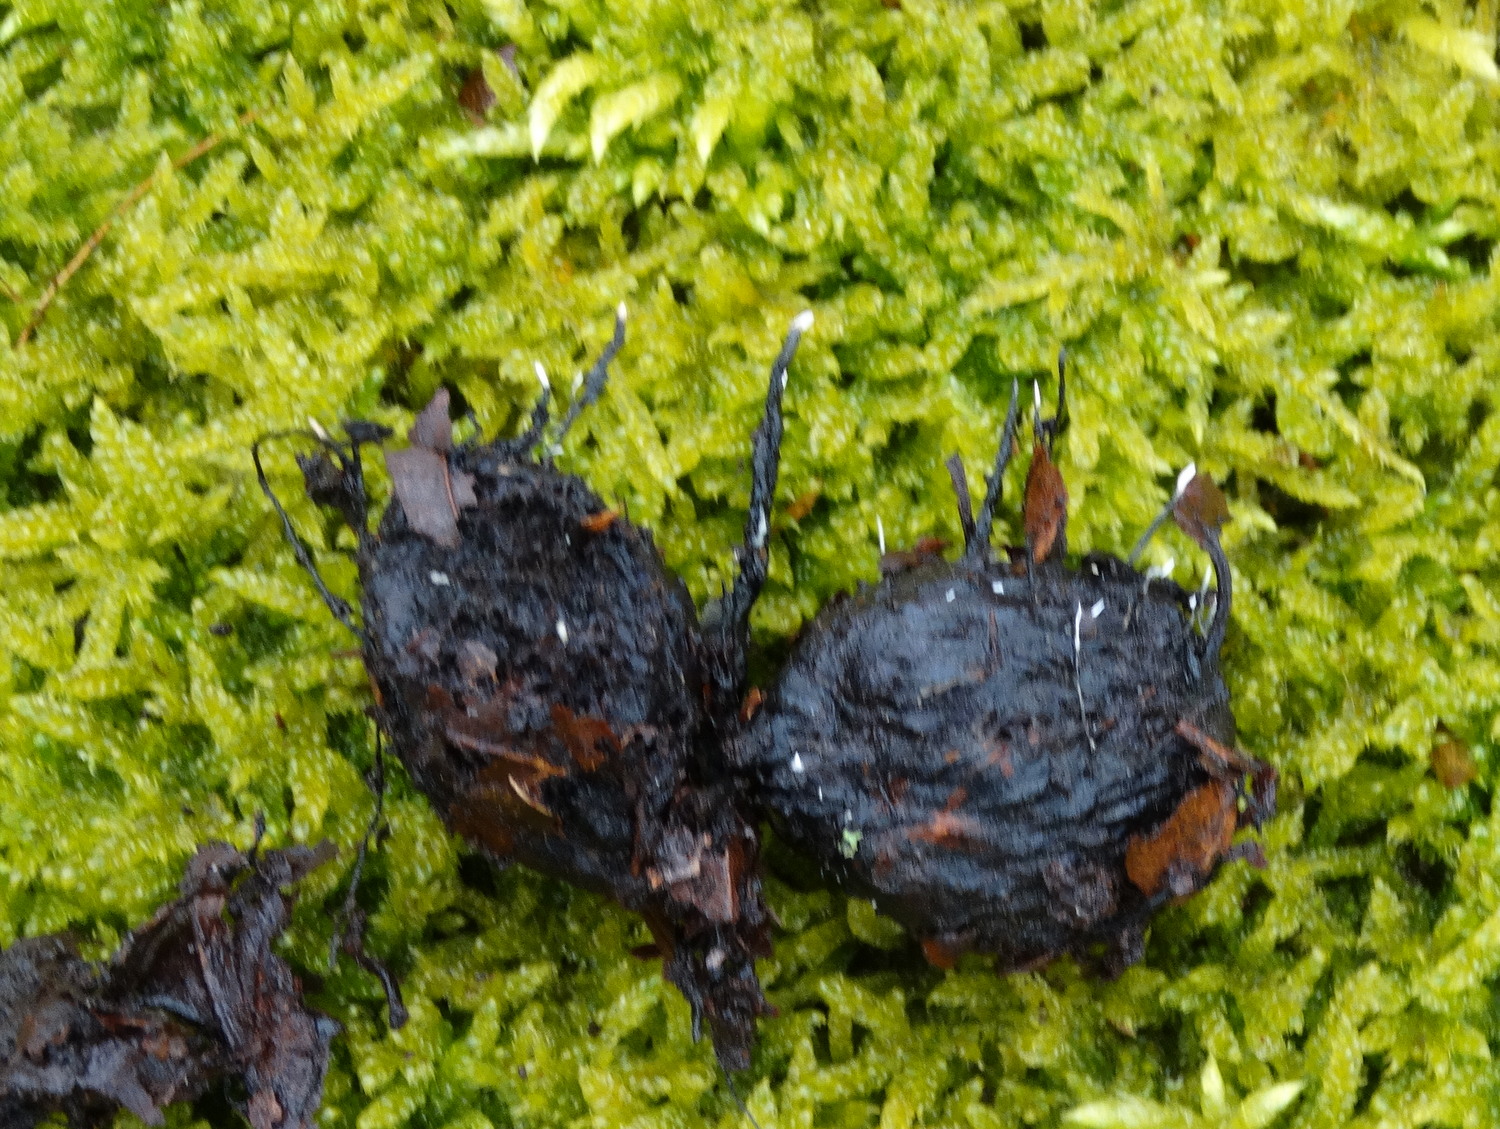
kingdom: Fungi
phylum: Ascomycota
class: Sordariomycetes
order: Xylariales
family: Xylariaceae
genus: Xylaria
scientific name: Xylaria carpophila
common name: bogskål-stødsvamp
